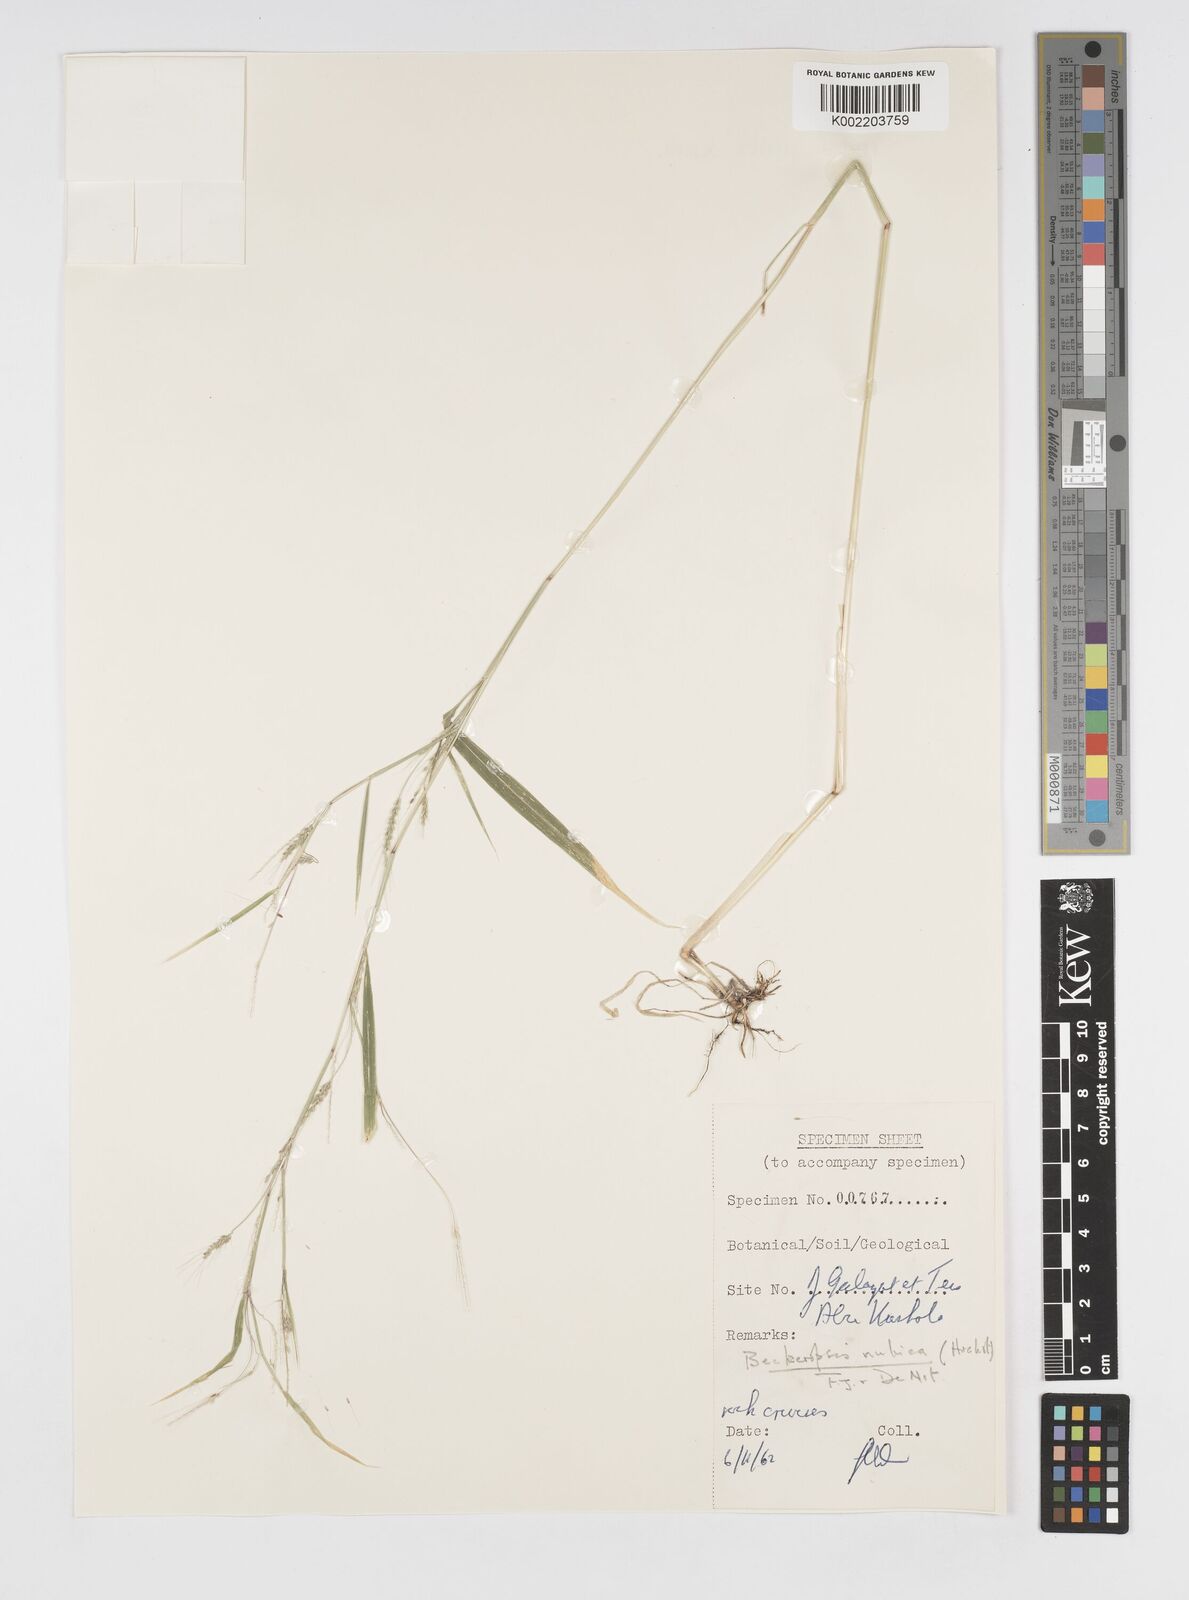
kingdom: Plantae
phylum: Tracheophyta
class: Liliopsida
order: Poales
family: Poaceae
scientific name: Poaceae
